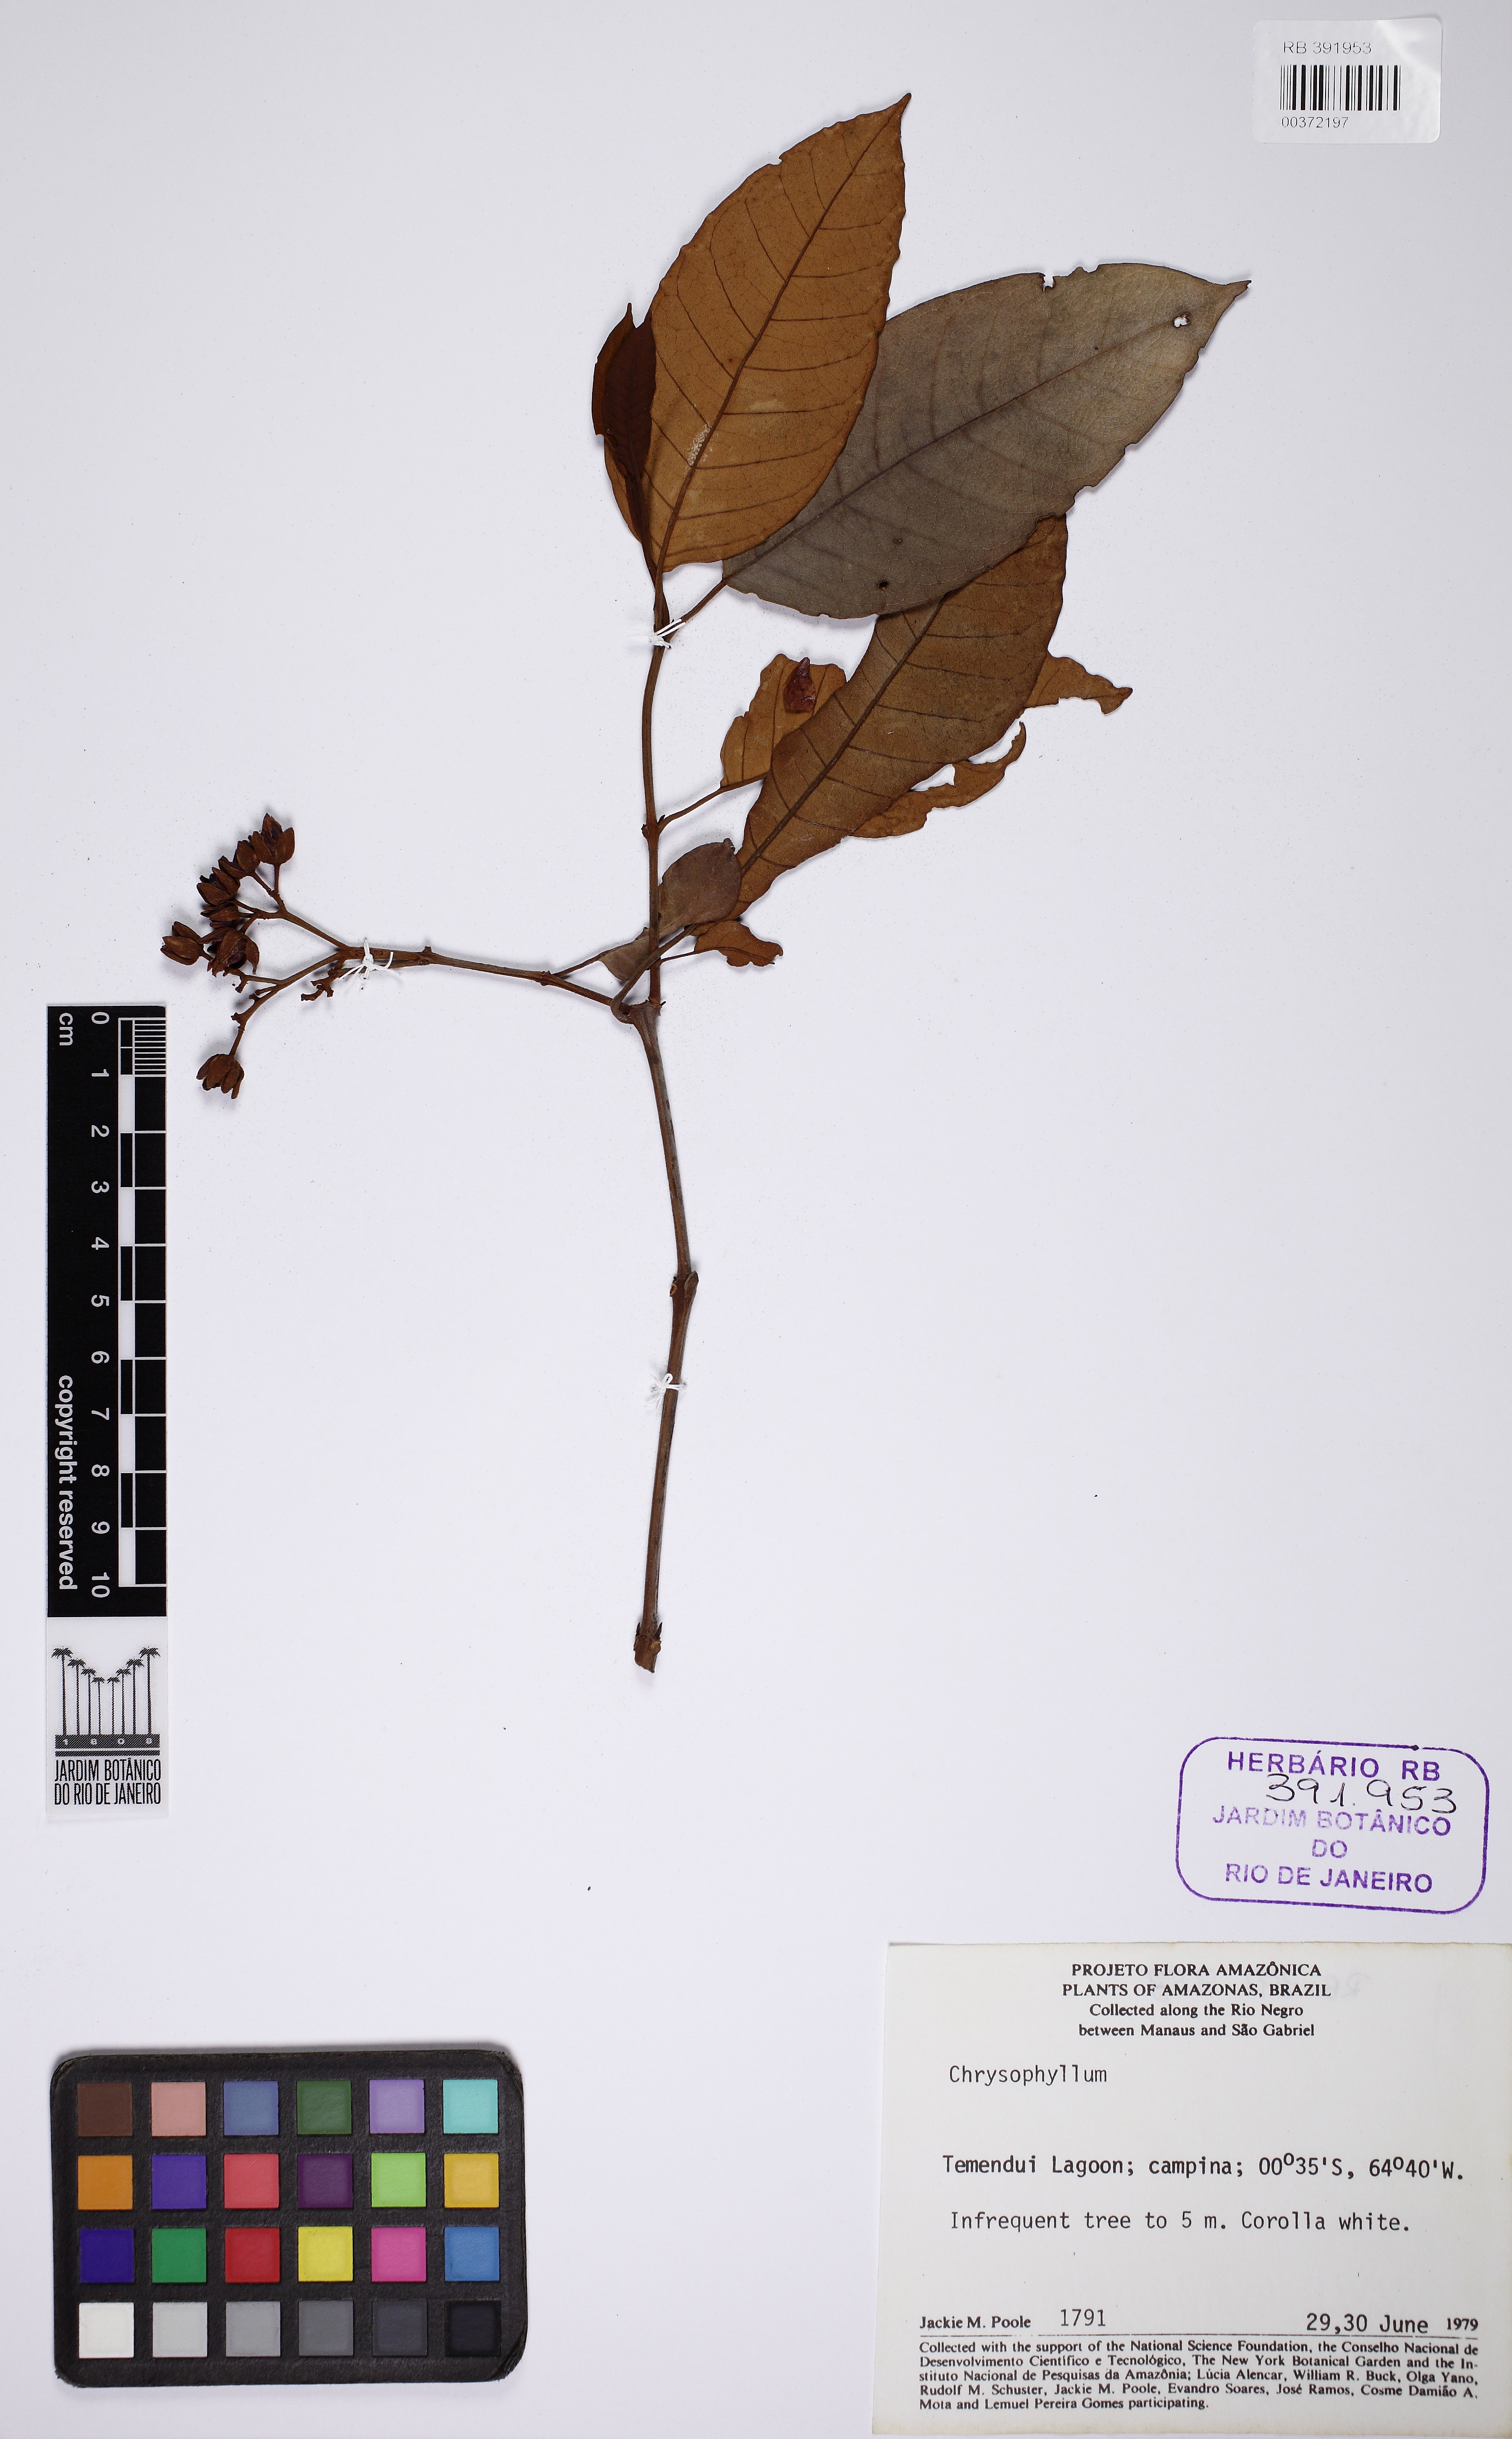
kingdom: Plantae
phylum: Tracheophyta
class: Magnoliopsida
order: Ericales
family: Sapotaceae
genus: Chrysophyllum
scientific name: Chrysophyllum
